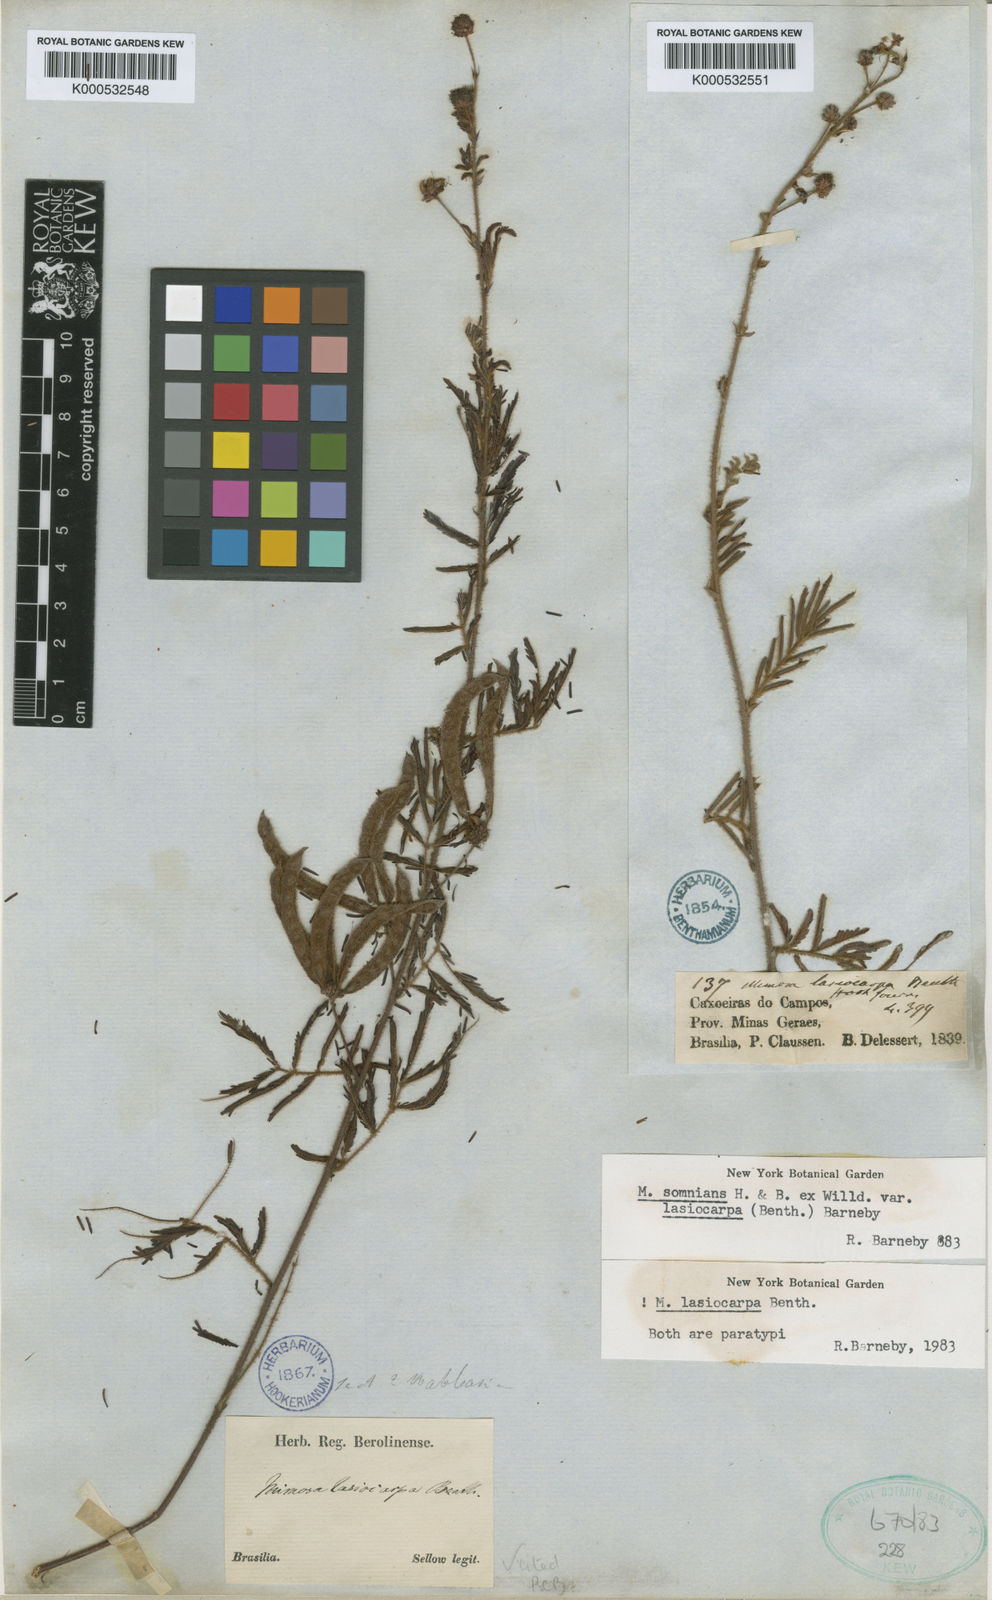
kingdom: Plantae
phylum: Tracheophyta
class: Magnoliopsida
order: Fabales
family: Fabaceae
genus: Mimosa
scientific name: Mimosa somnians
